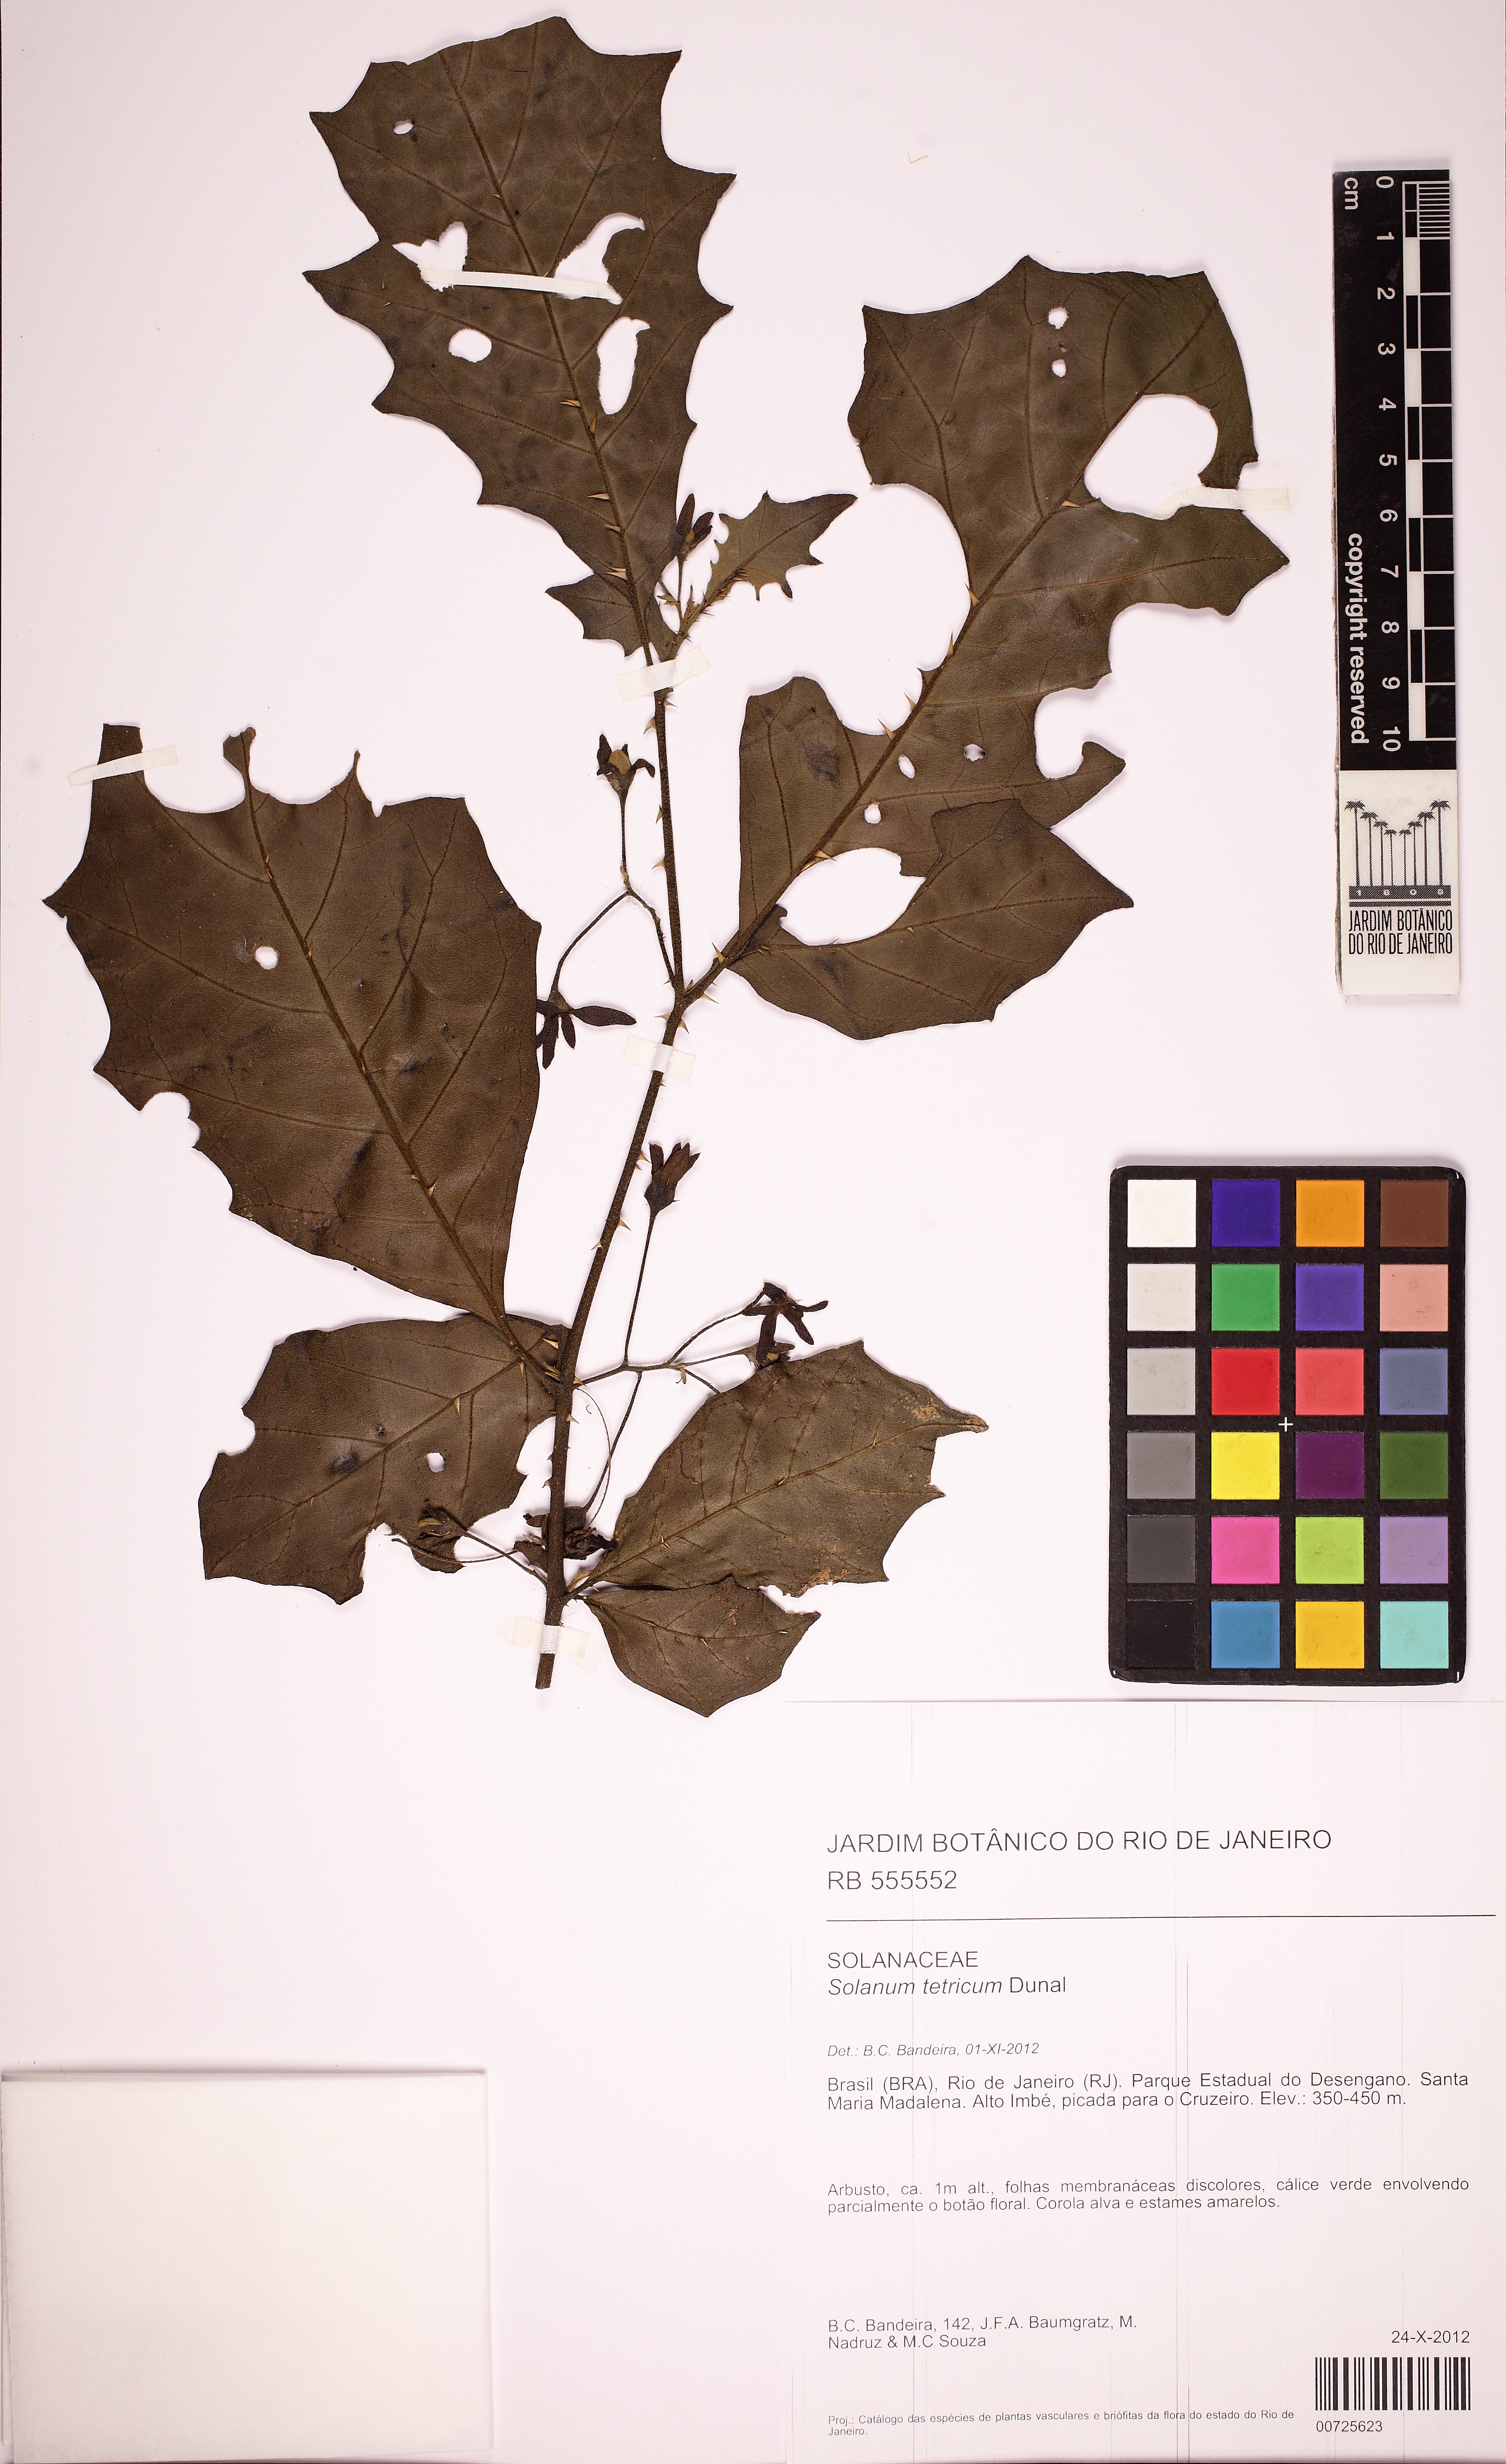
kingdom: Plantae
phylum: Tracheophyta
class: Magnoliopsida
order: Solanales
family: Solanaceae
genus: Solanum
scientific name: Solanum sessilantherum
